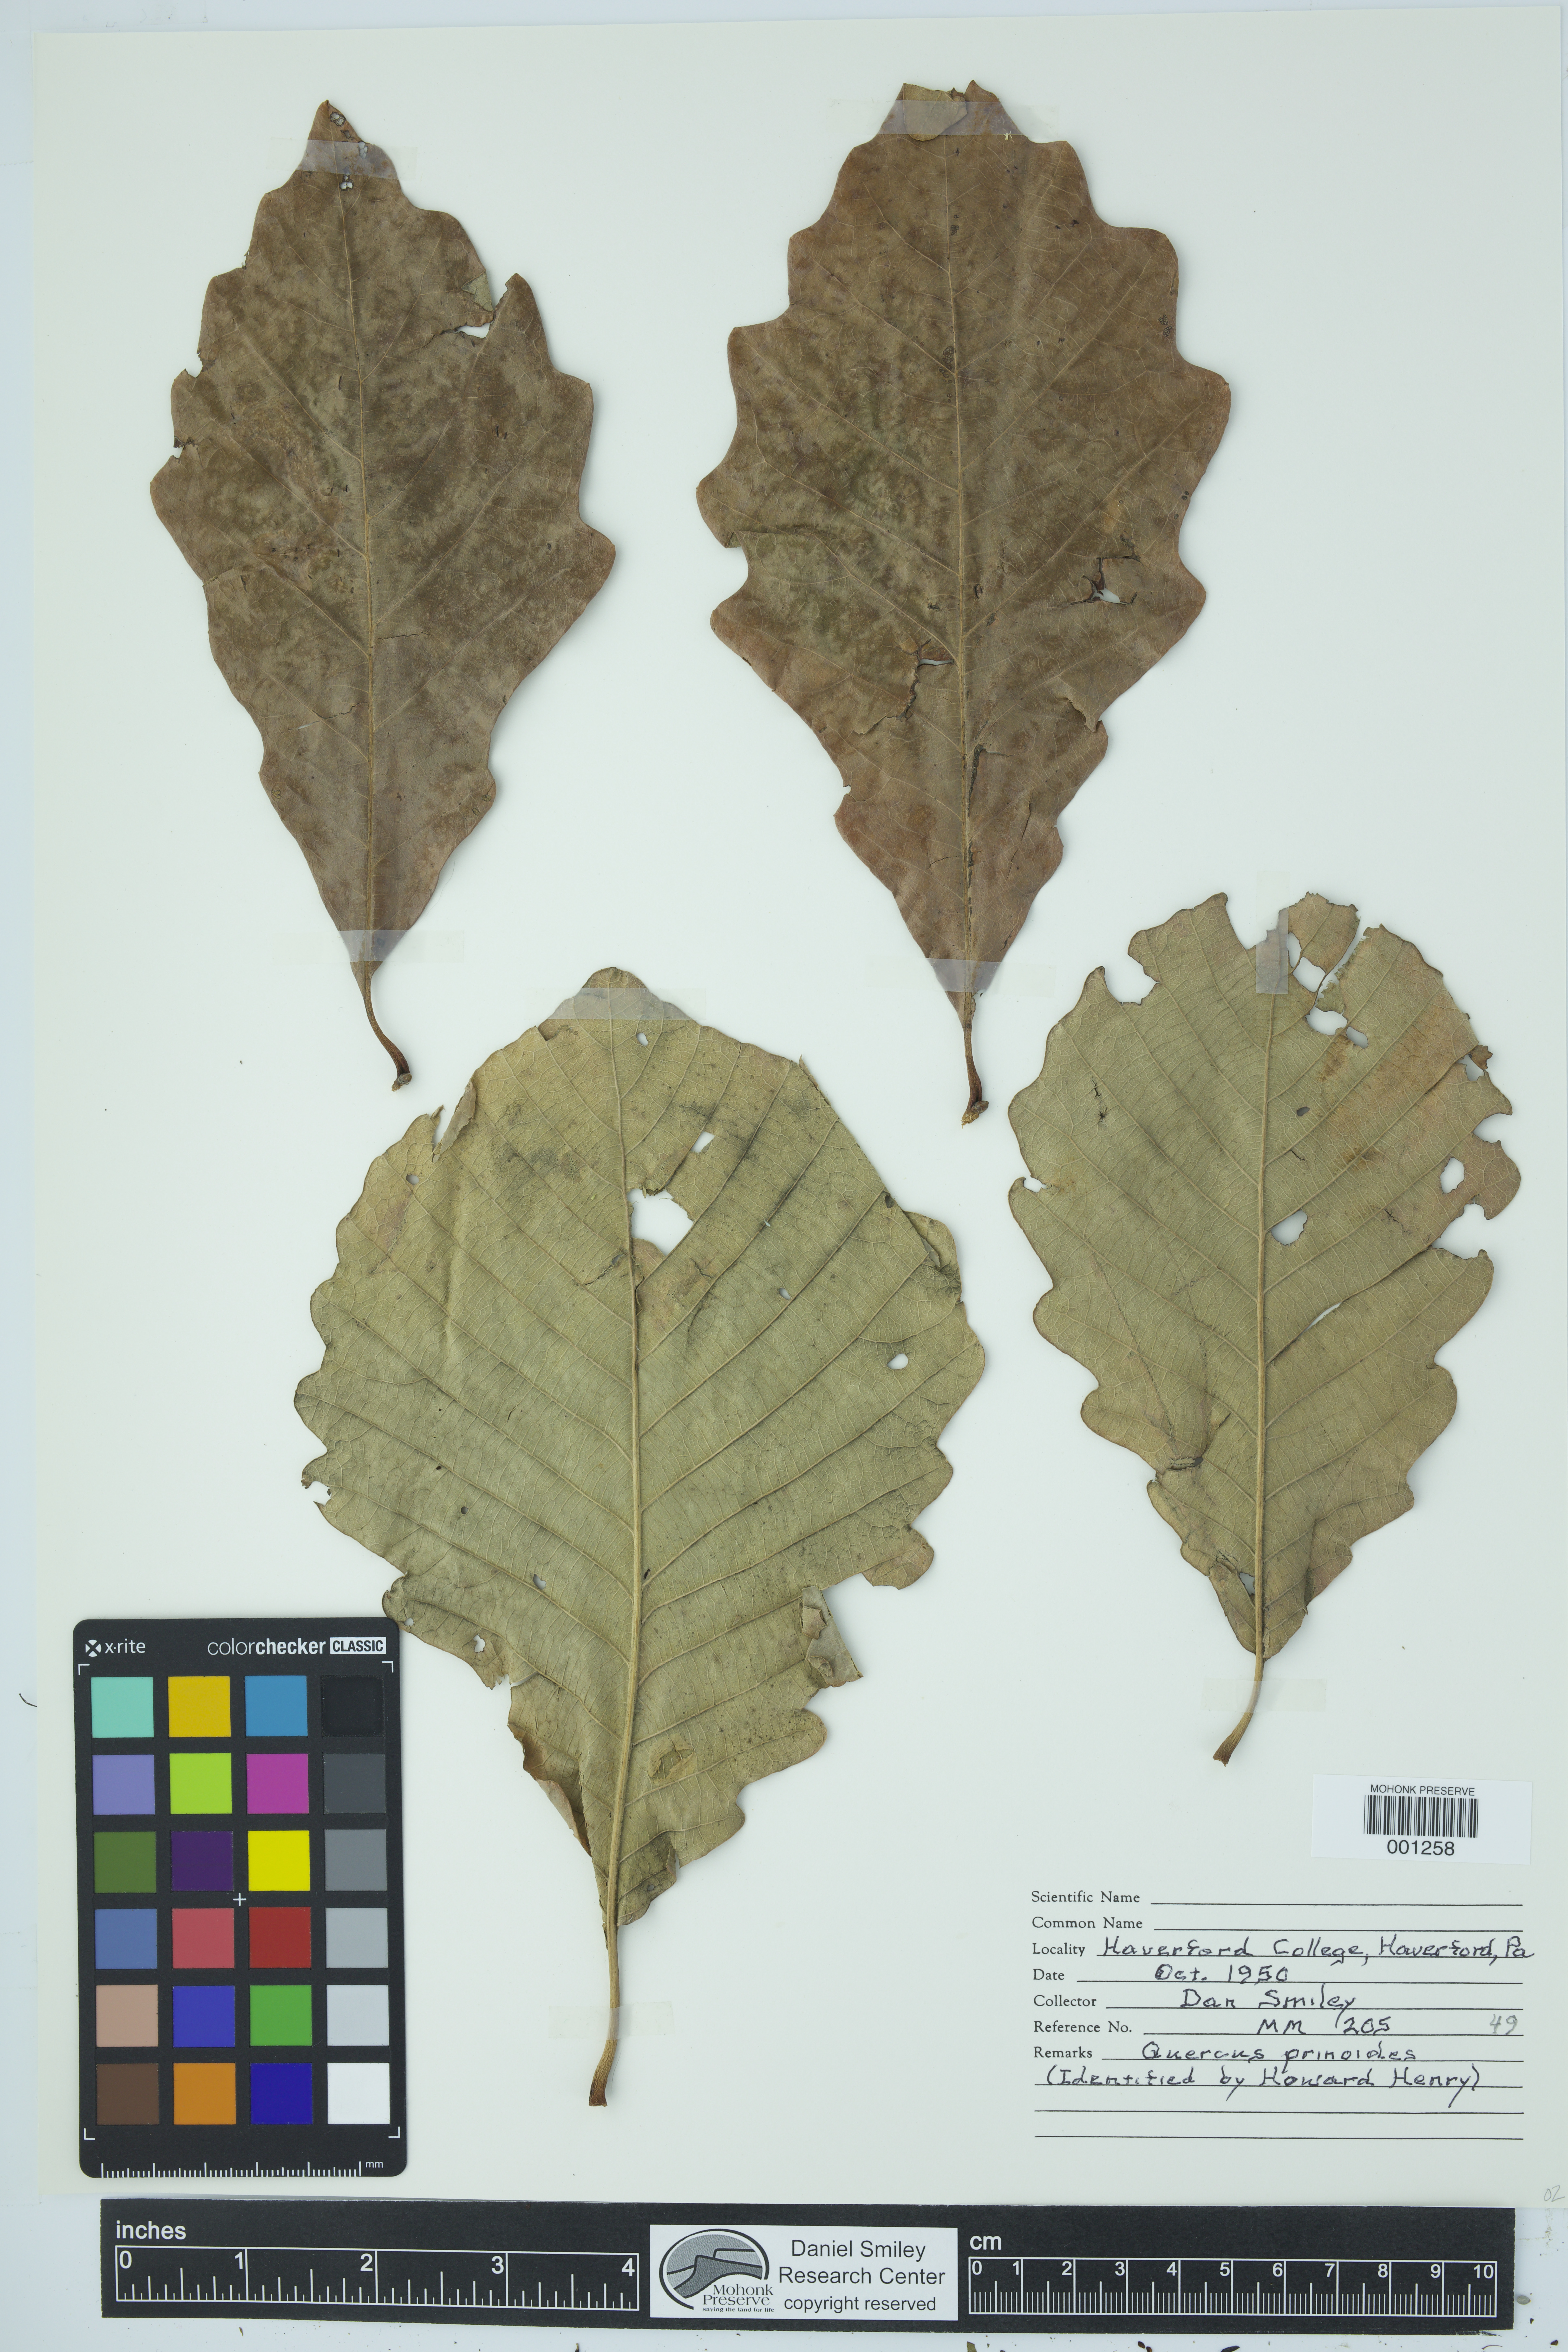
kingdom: Plantae
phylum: Tracheophyta
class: Magnoliopsida
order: Fagales
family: Fagaceae
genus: Quercus
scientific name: Quercus prinoides
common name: Dwarf chinkapin oak
